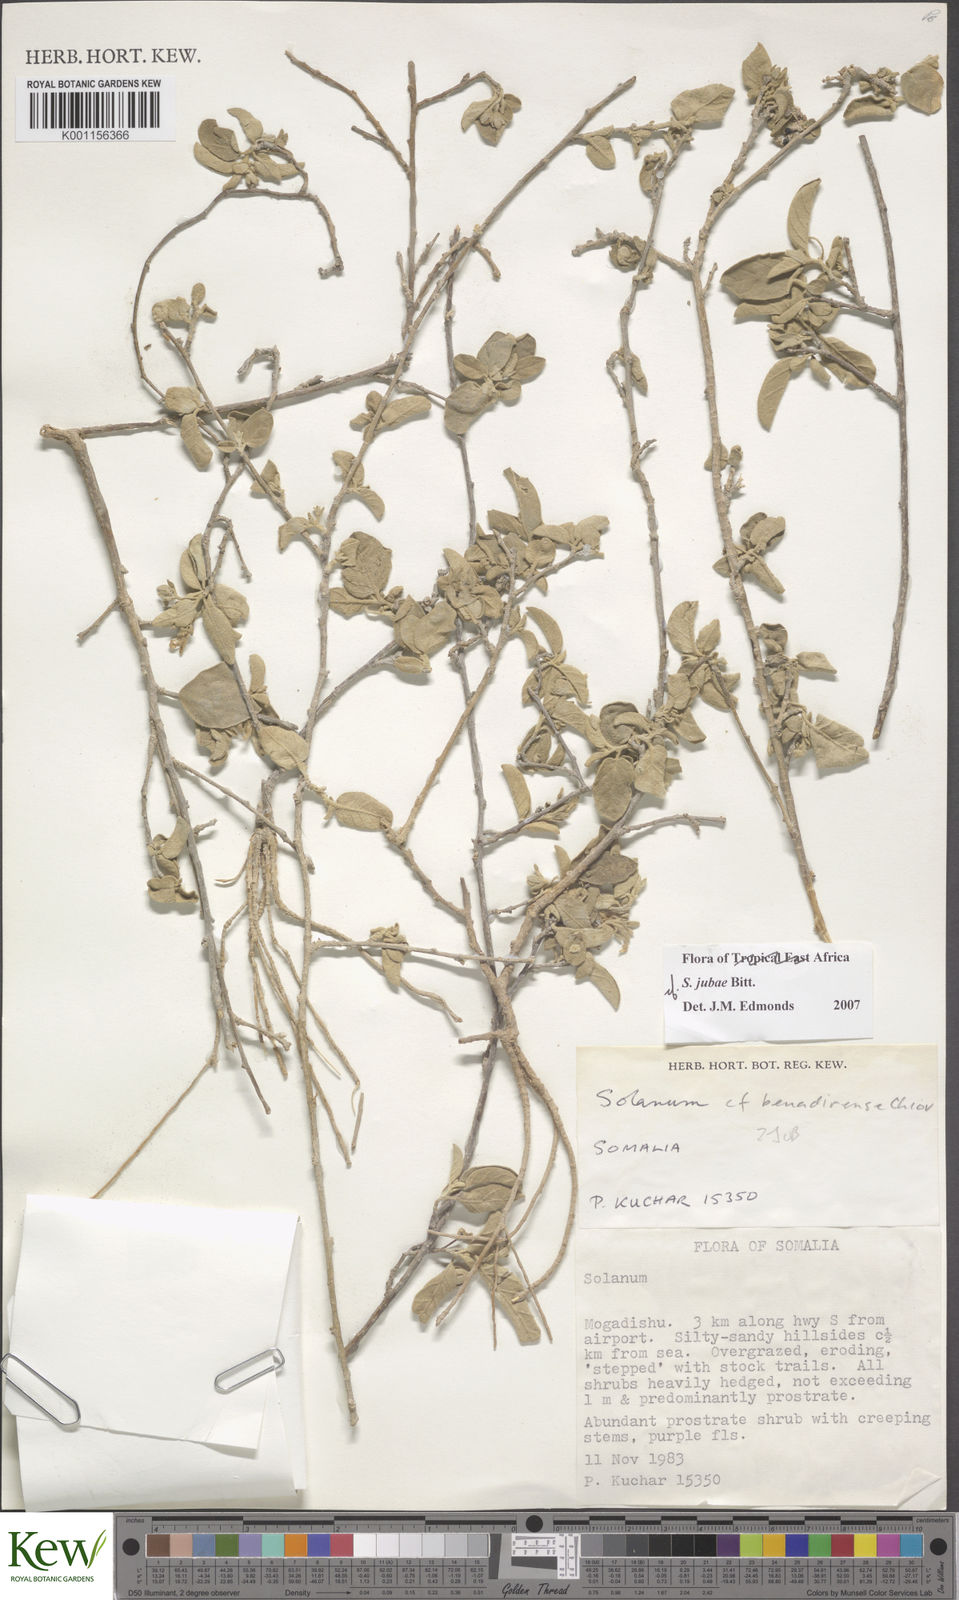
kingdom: Plantae
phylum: Tracheophyta
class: Magnoliopsida
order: Solanales
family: Solanaceae
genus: Solanum
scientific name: Solanum jubae
